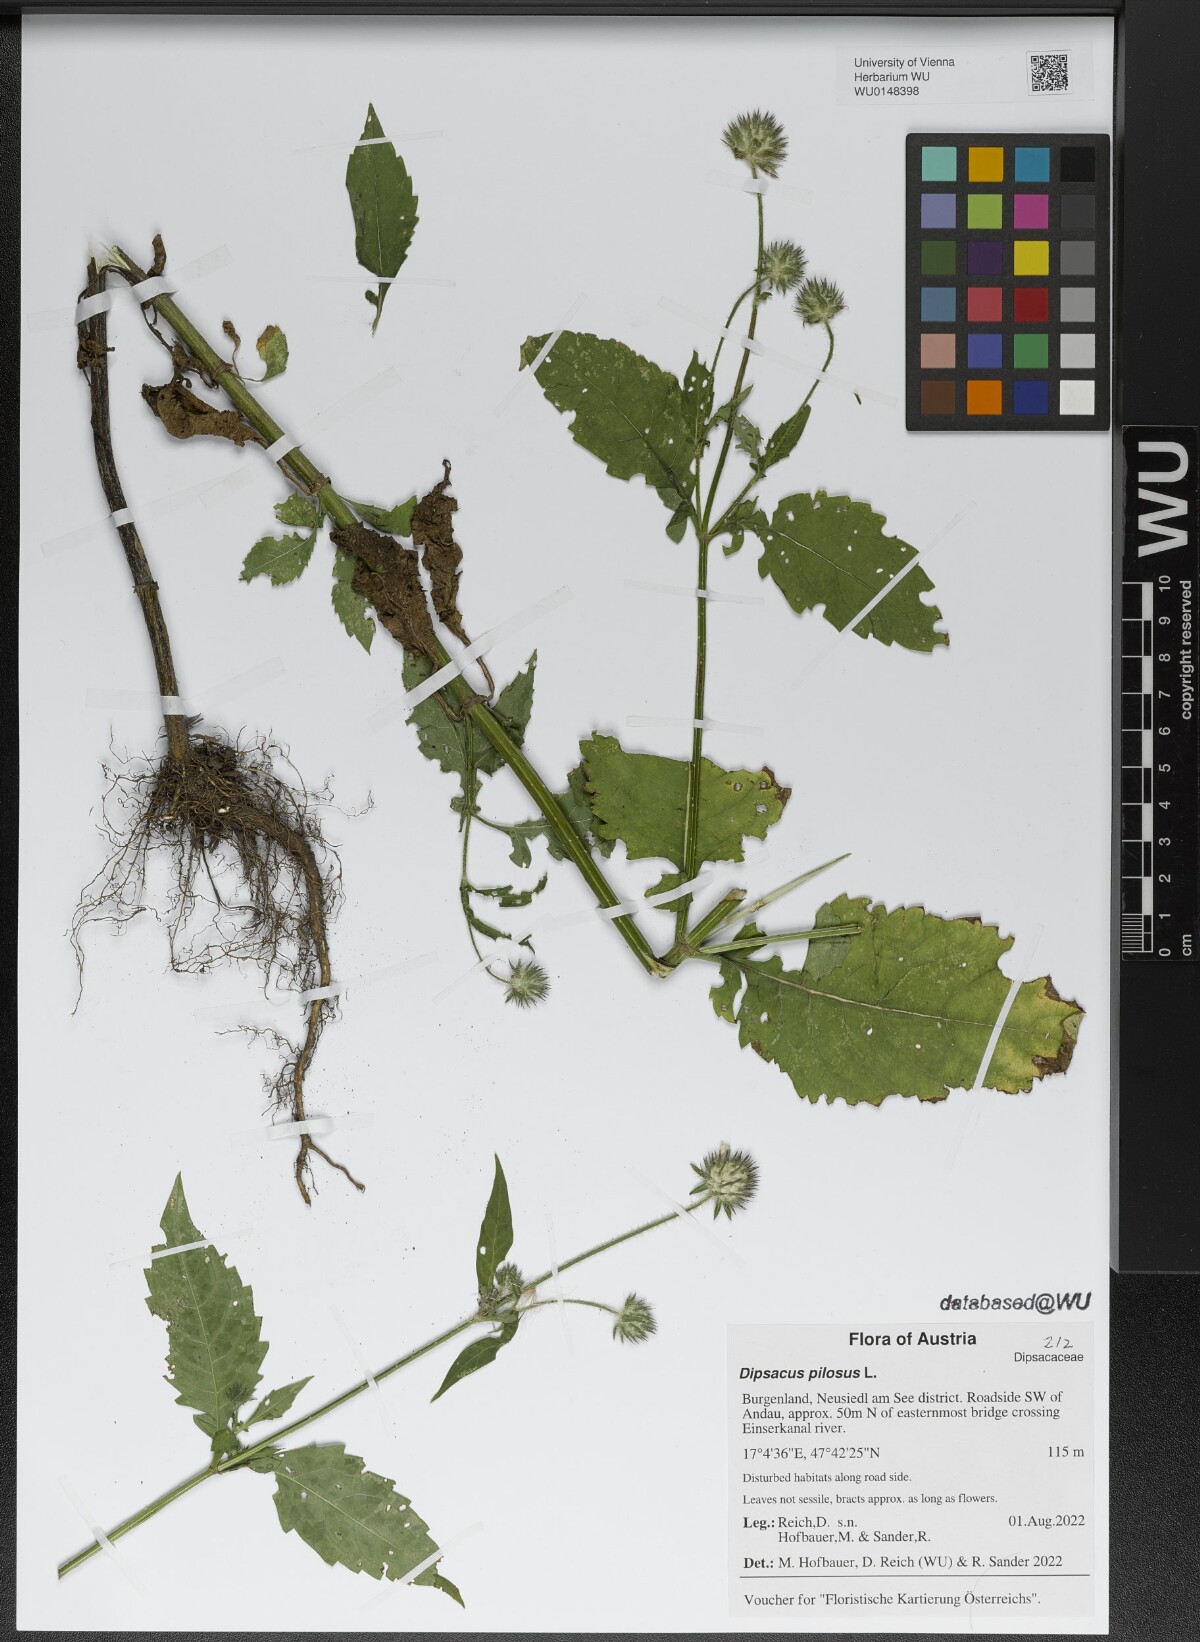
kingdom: Plantae
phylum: Tracheophyta
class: Magnoliopsida
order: Dipsacales
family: Caprifoliaceae
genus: Dipsacus
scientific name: Dipsacus pilosus
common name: Small teasel
